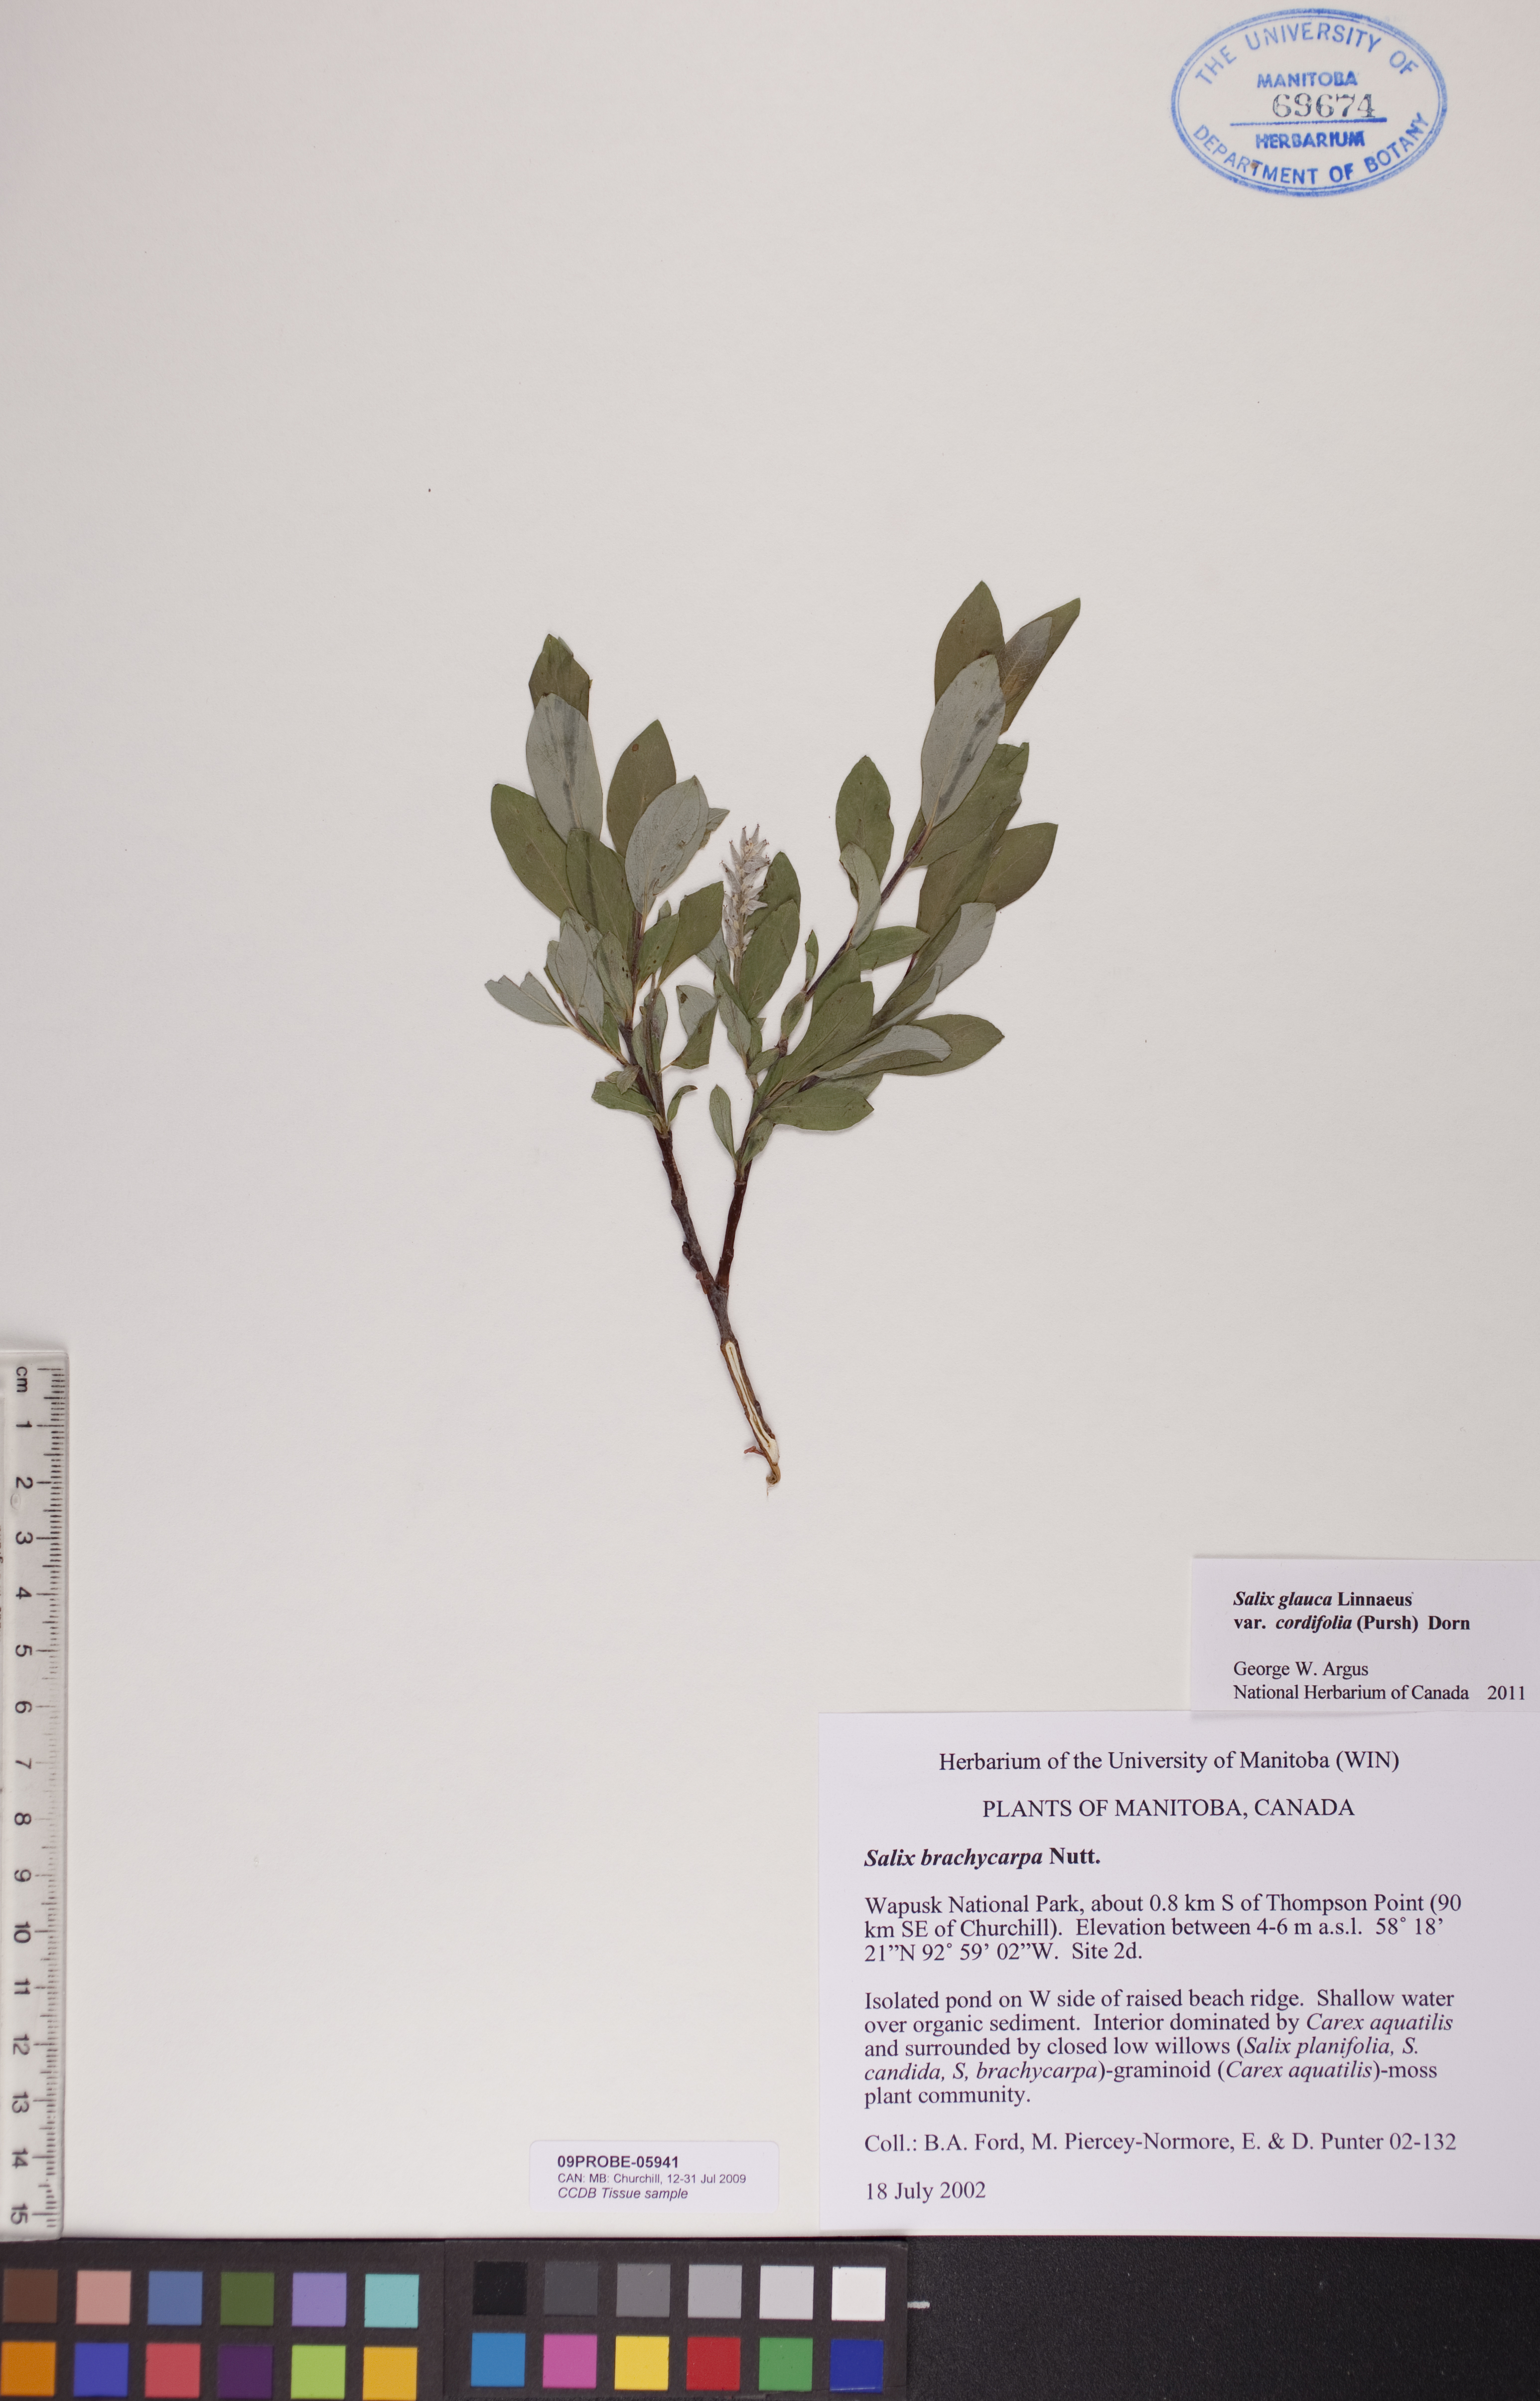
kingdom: Plantae
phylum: Tracheophyta
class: Magnoliopsida
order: Malpighiales
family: Salicaceae
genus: Salix
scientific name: Salix glauca
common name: Glaucous willow
